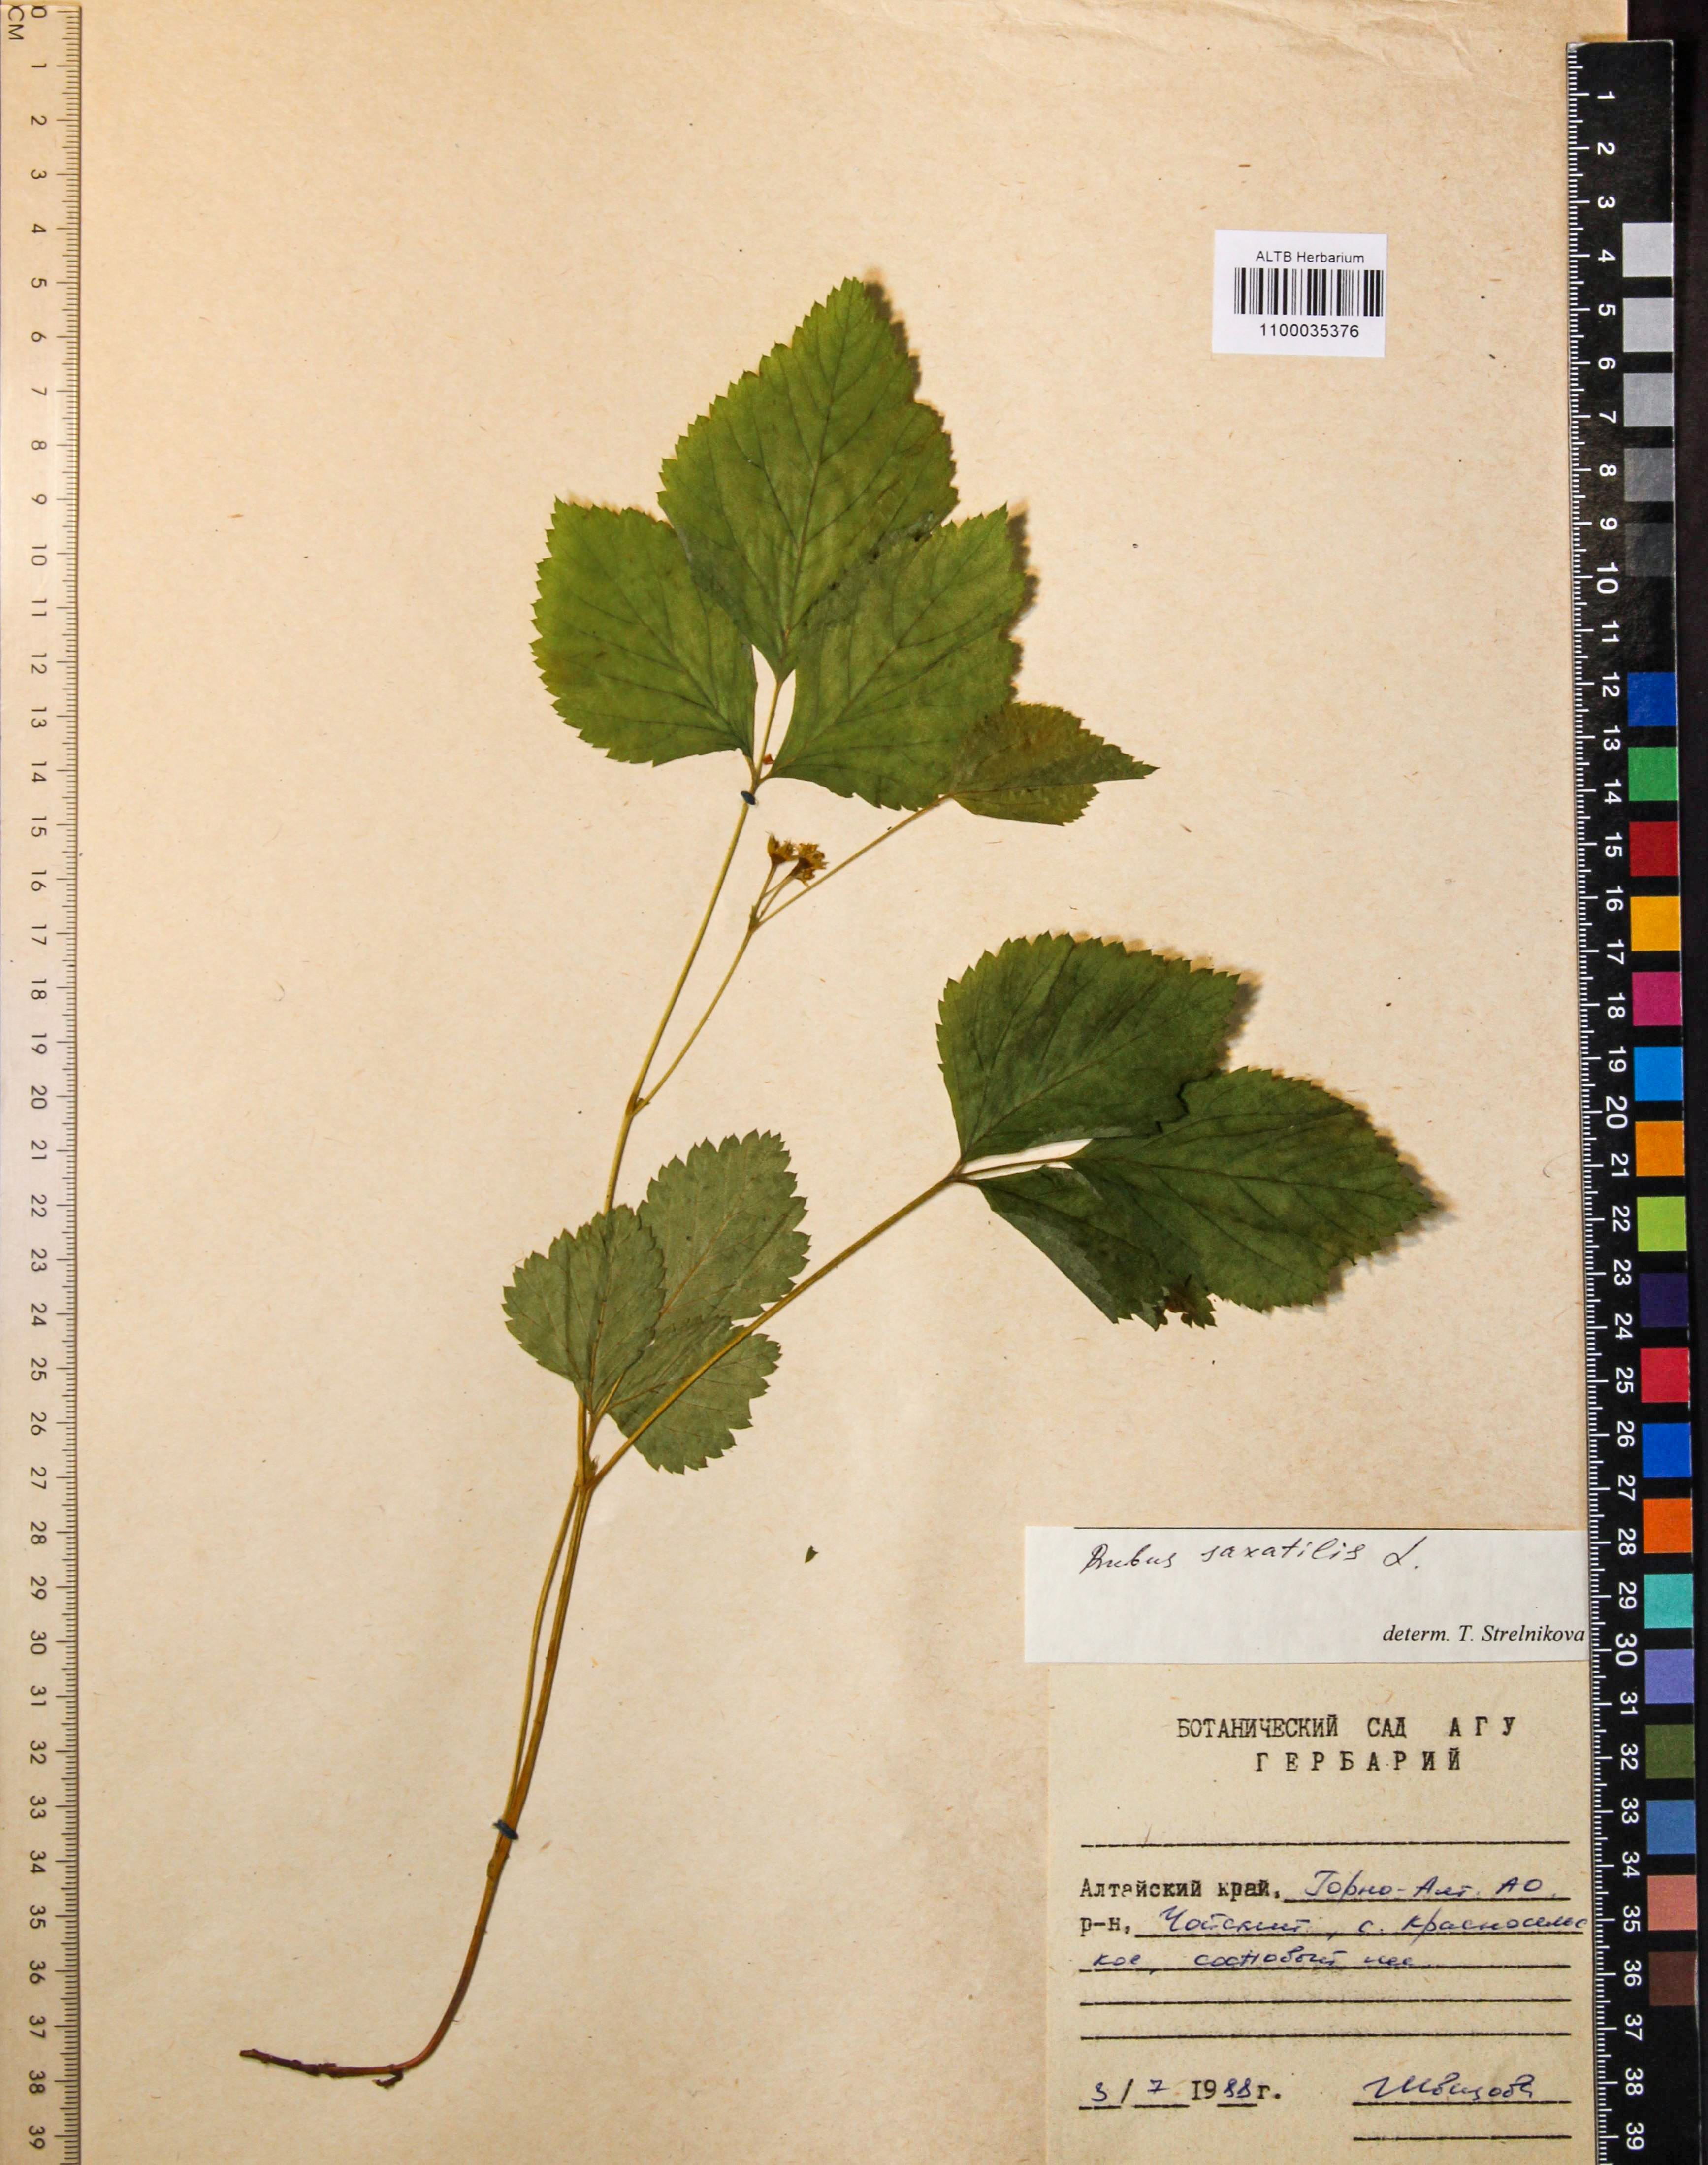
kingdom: Plantae
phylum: Tracheophyta
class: Magnoliopsida
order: Rosales
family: Rosaceae
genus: Rubus
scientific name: Rubus saxatilis
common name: Stone bramble
